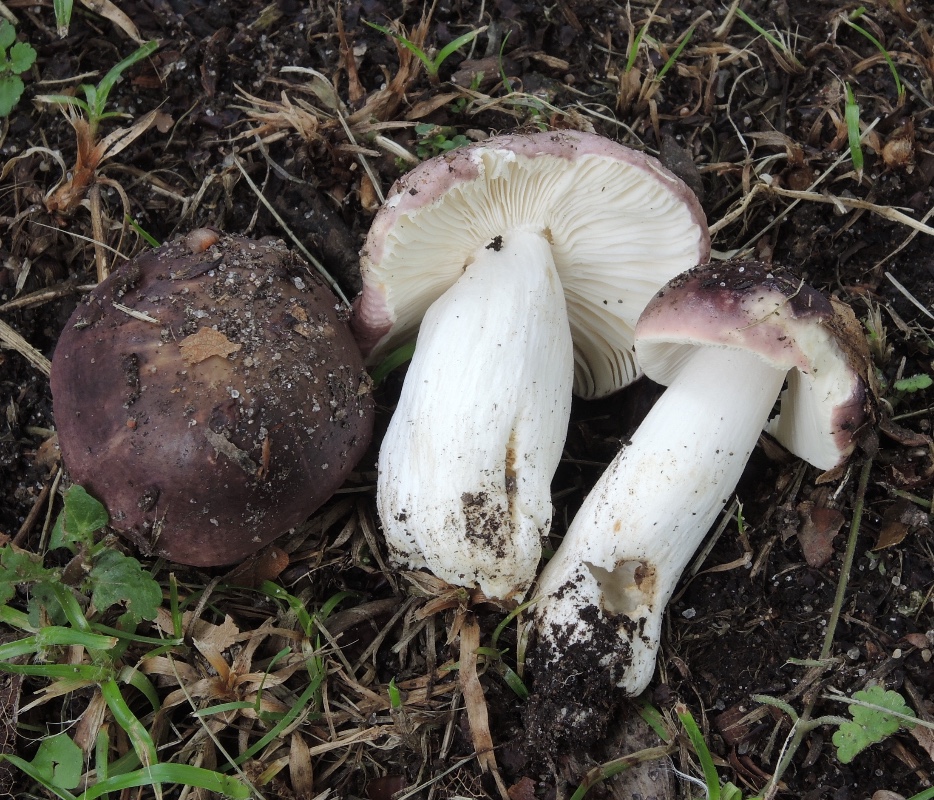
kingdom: Fungi
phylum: Basidiomycota
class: Agaricomycetes
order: Russulales
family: Russulaceae
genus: Russula
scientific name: Russula pelargonia
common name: pelargonie-skørhat
